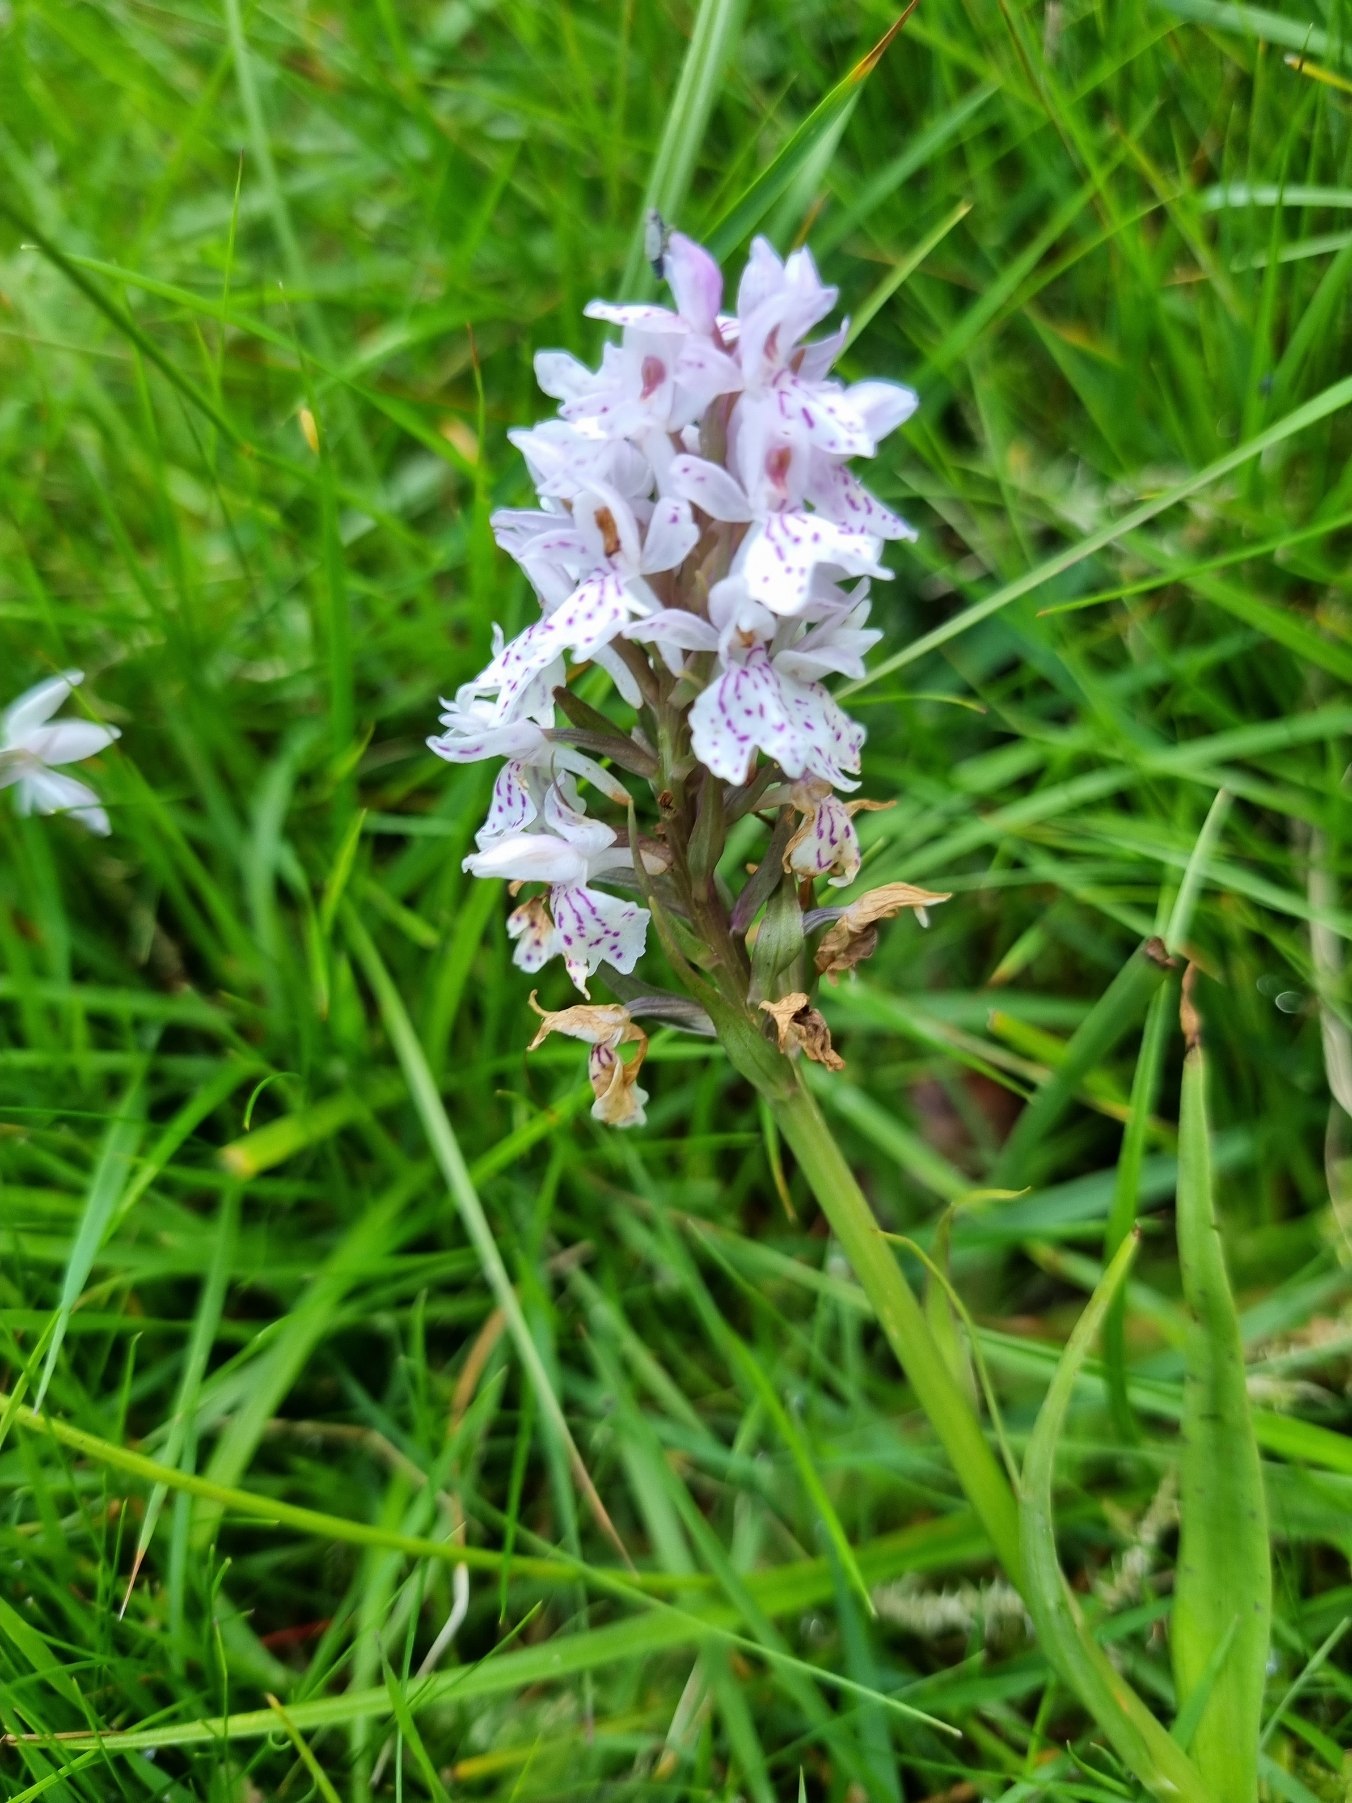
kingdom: Plantae
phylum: Tracheophyta
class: Liliopsida
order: Asparagales
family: Orchidaceae
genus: Dactylorhiza
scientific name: Dactylorhiza maculata
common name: Plettet gøgeurt
